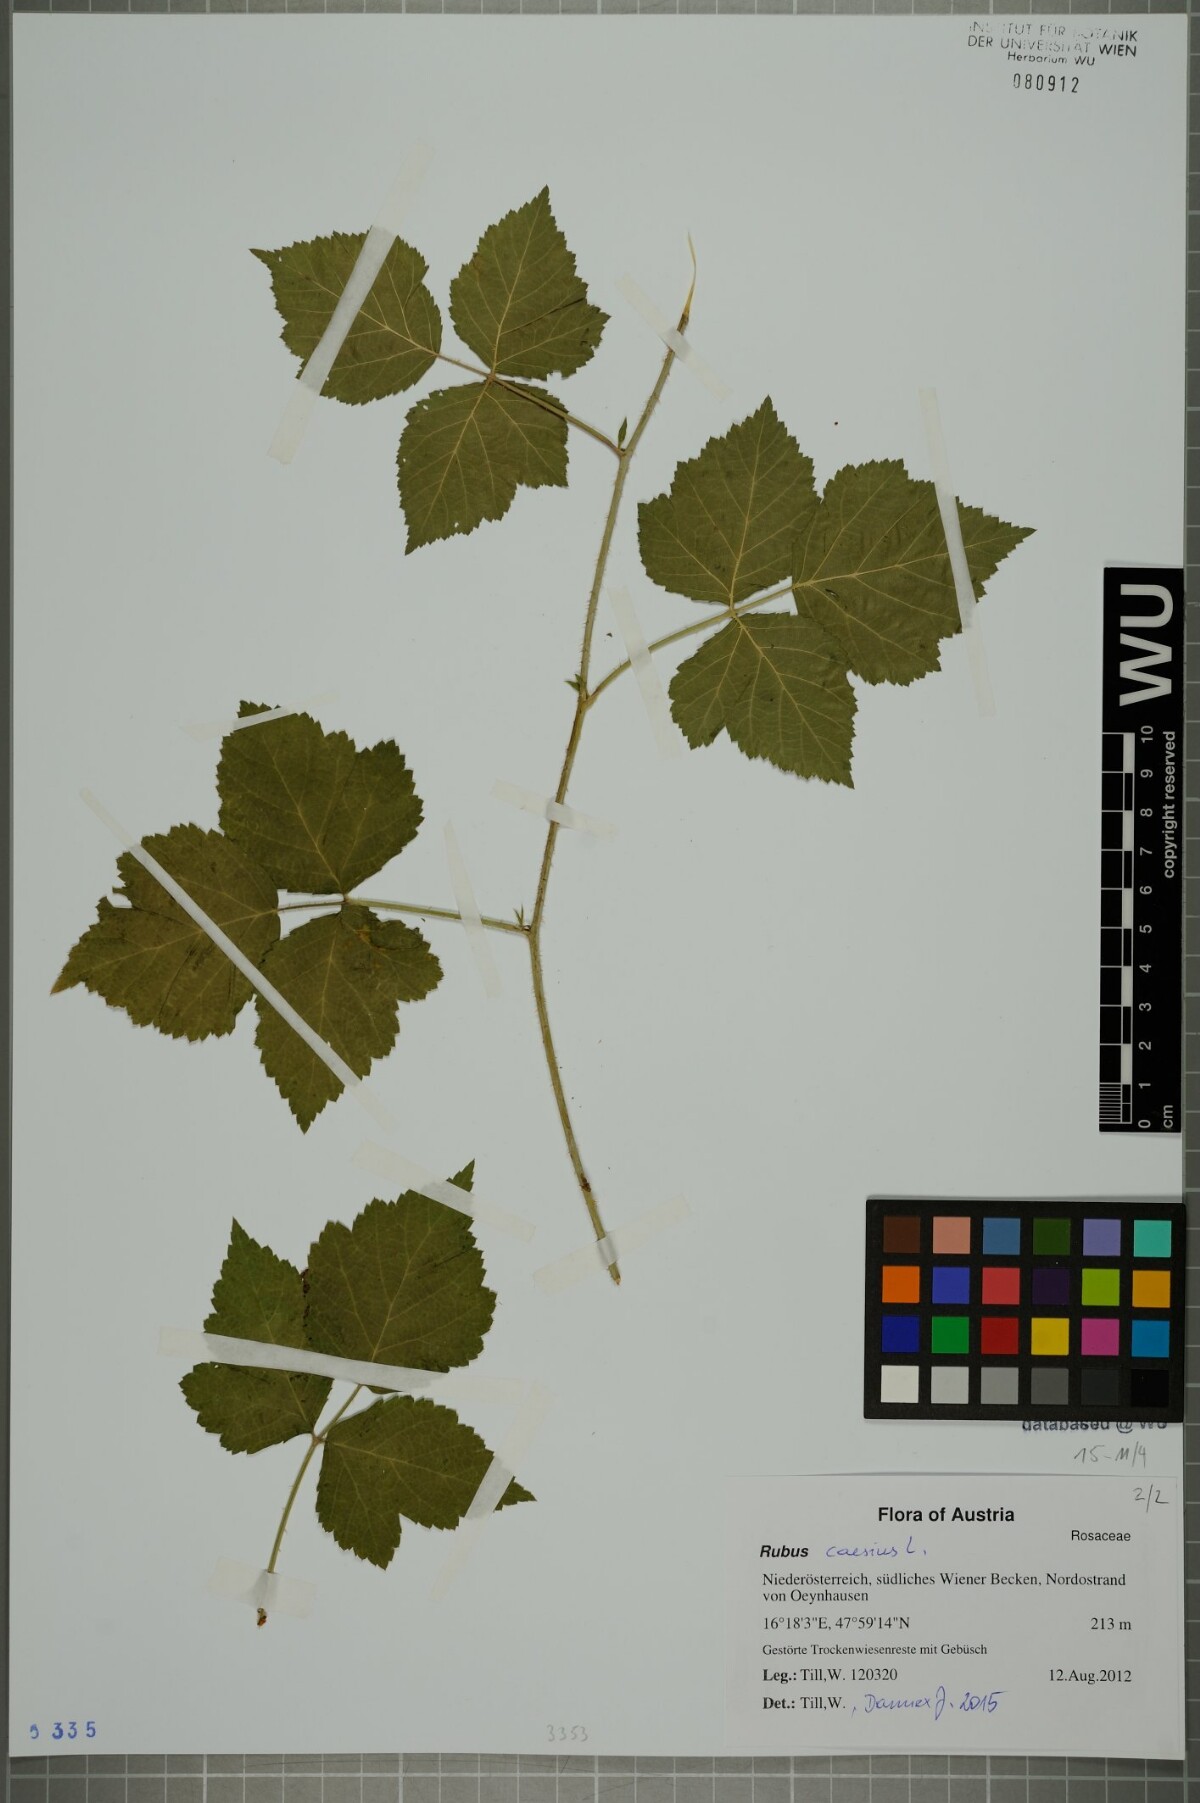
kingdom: Plantae
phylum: Tracheophyta
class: Magnoliopsida
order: Rosales
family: Rosaceae
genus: Rubus
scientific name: Rubus caesius
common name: Dewberry
